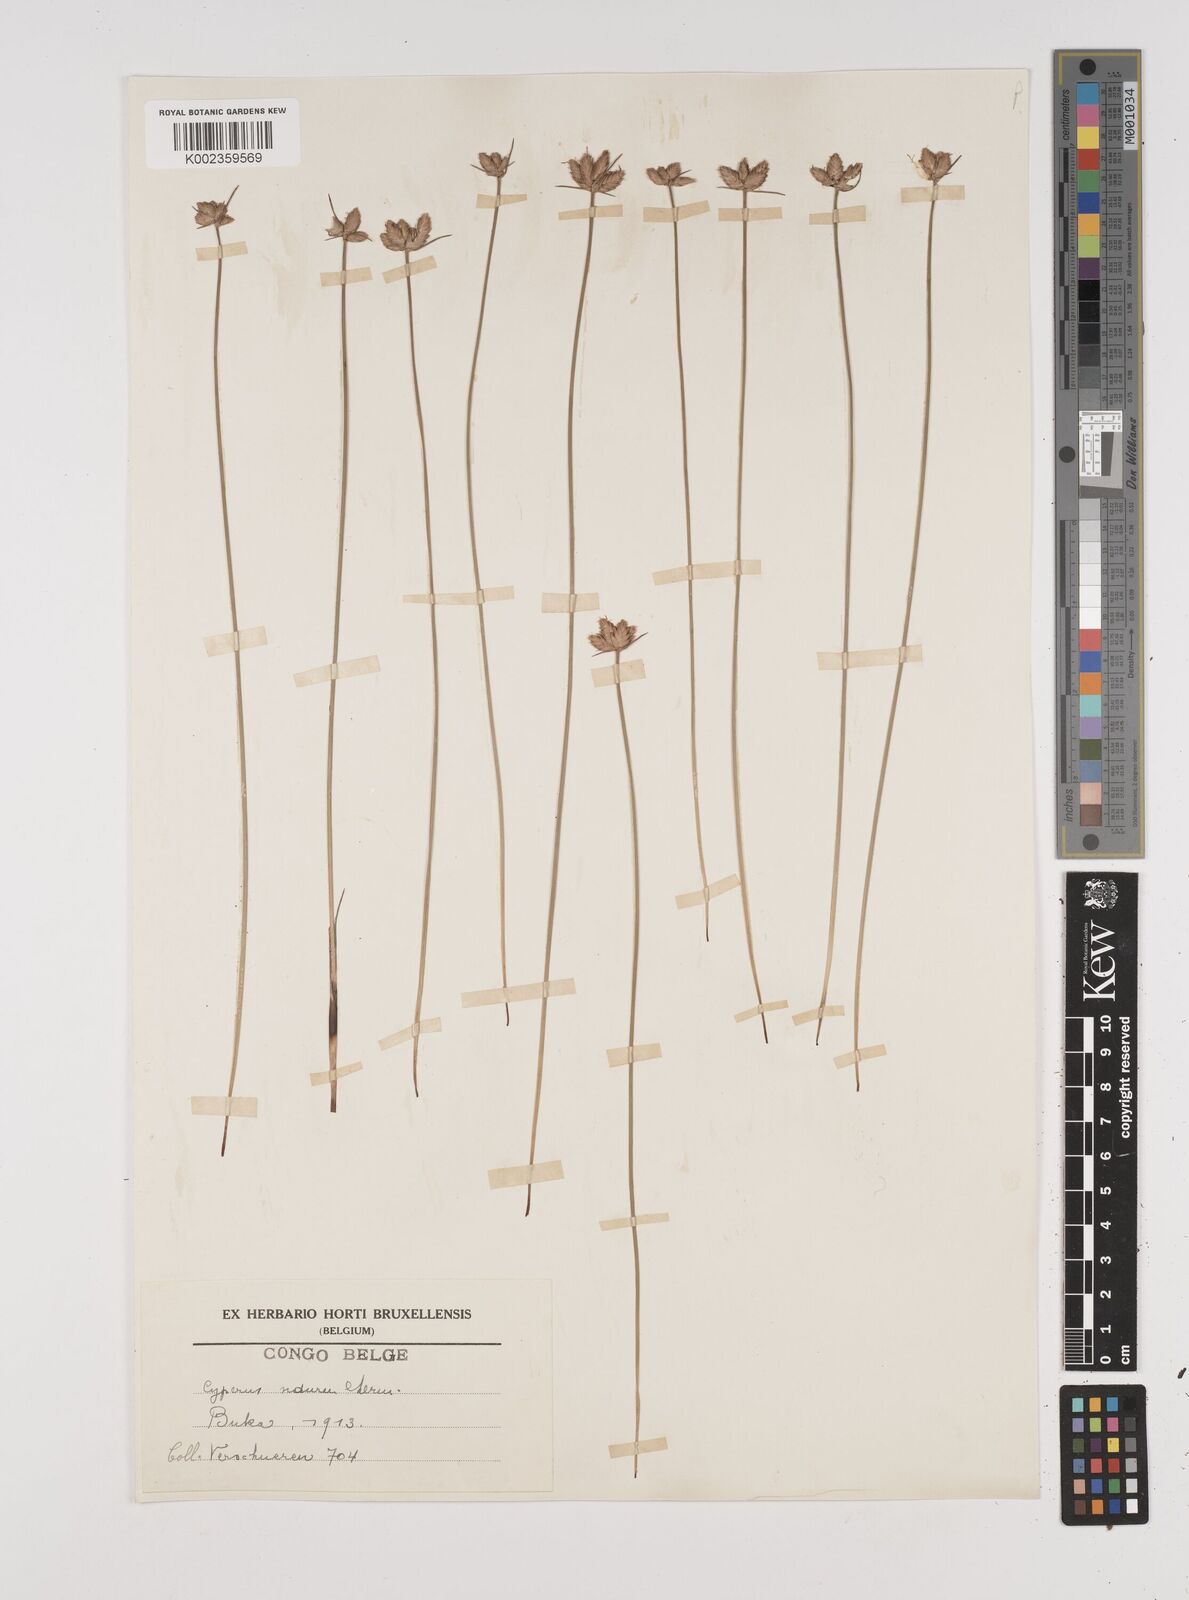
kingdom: Plantae
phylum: Tracheophyta
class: Liliopsida
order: Poales
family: Cyperaceae
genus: Cyperus
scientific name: Cyperus nduru
